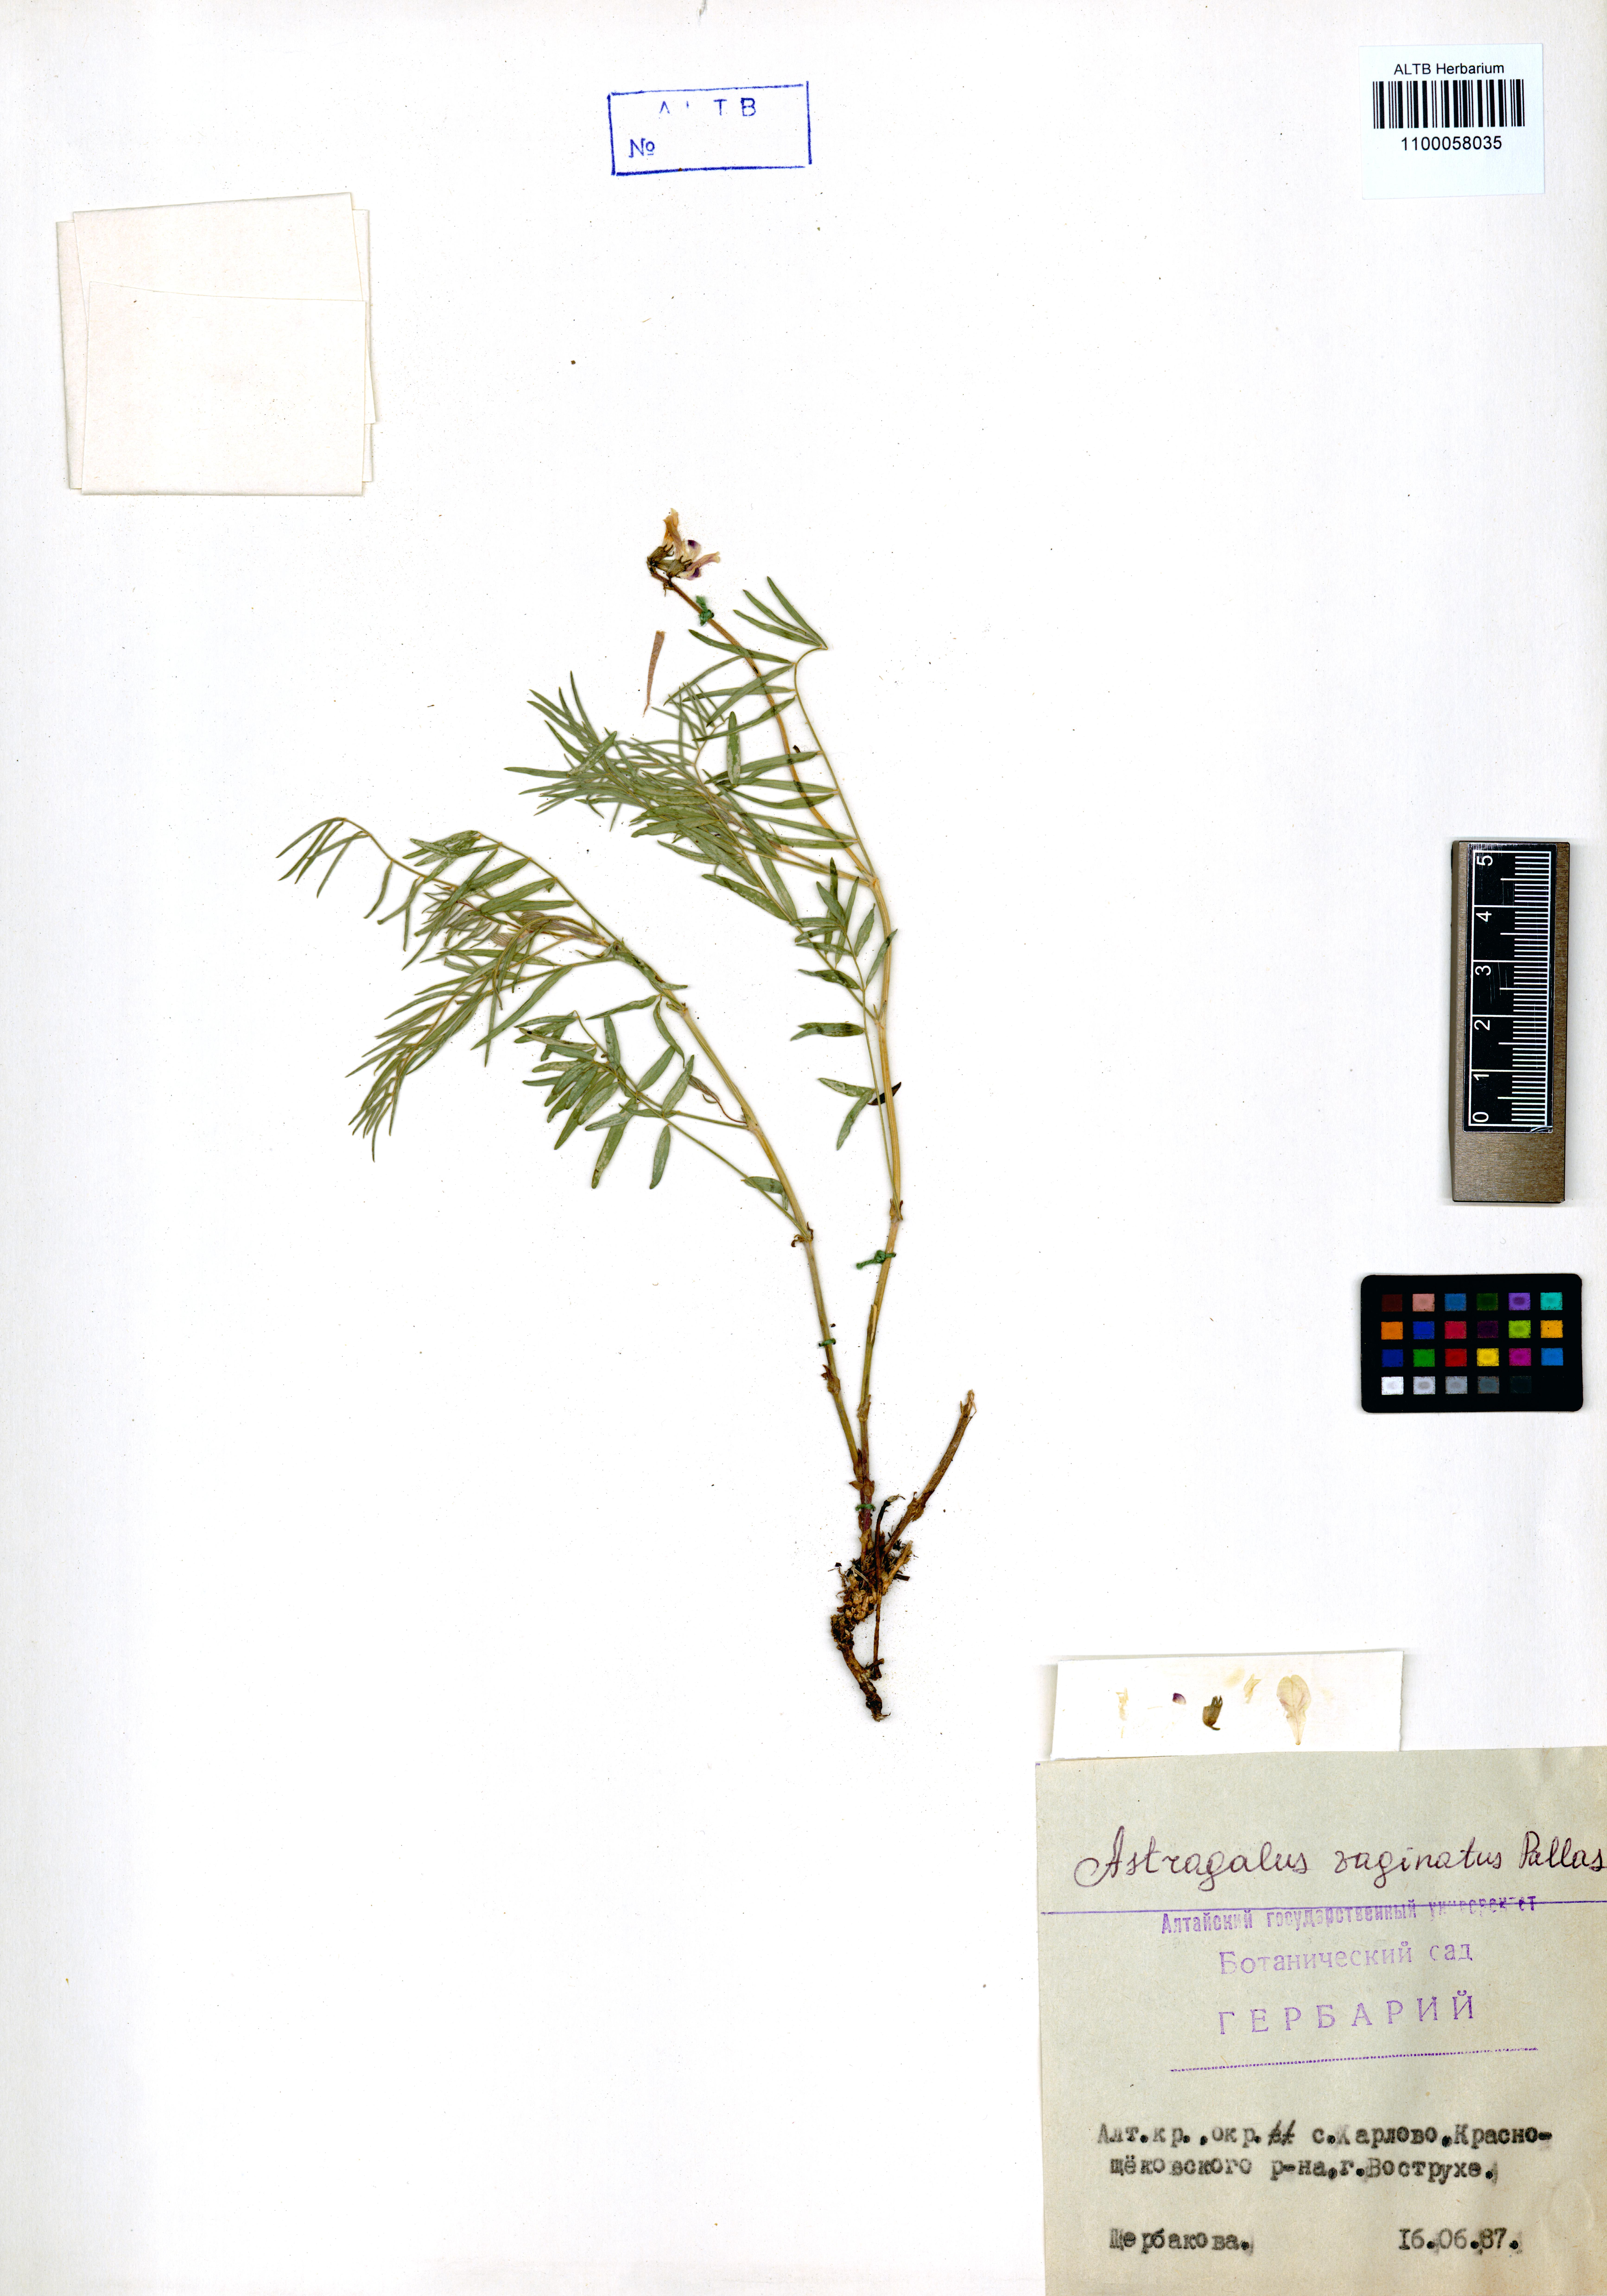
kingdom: Plantae
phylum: Tracheophyta
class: Magnoliopsida
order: Fabales
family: Fabaceae
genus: Astragalus
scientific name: Astragalus vaginatus
